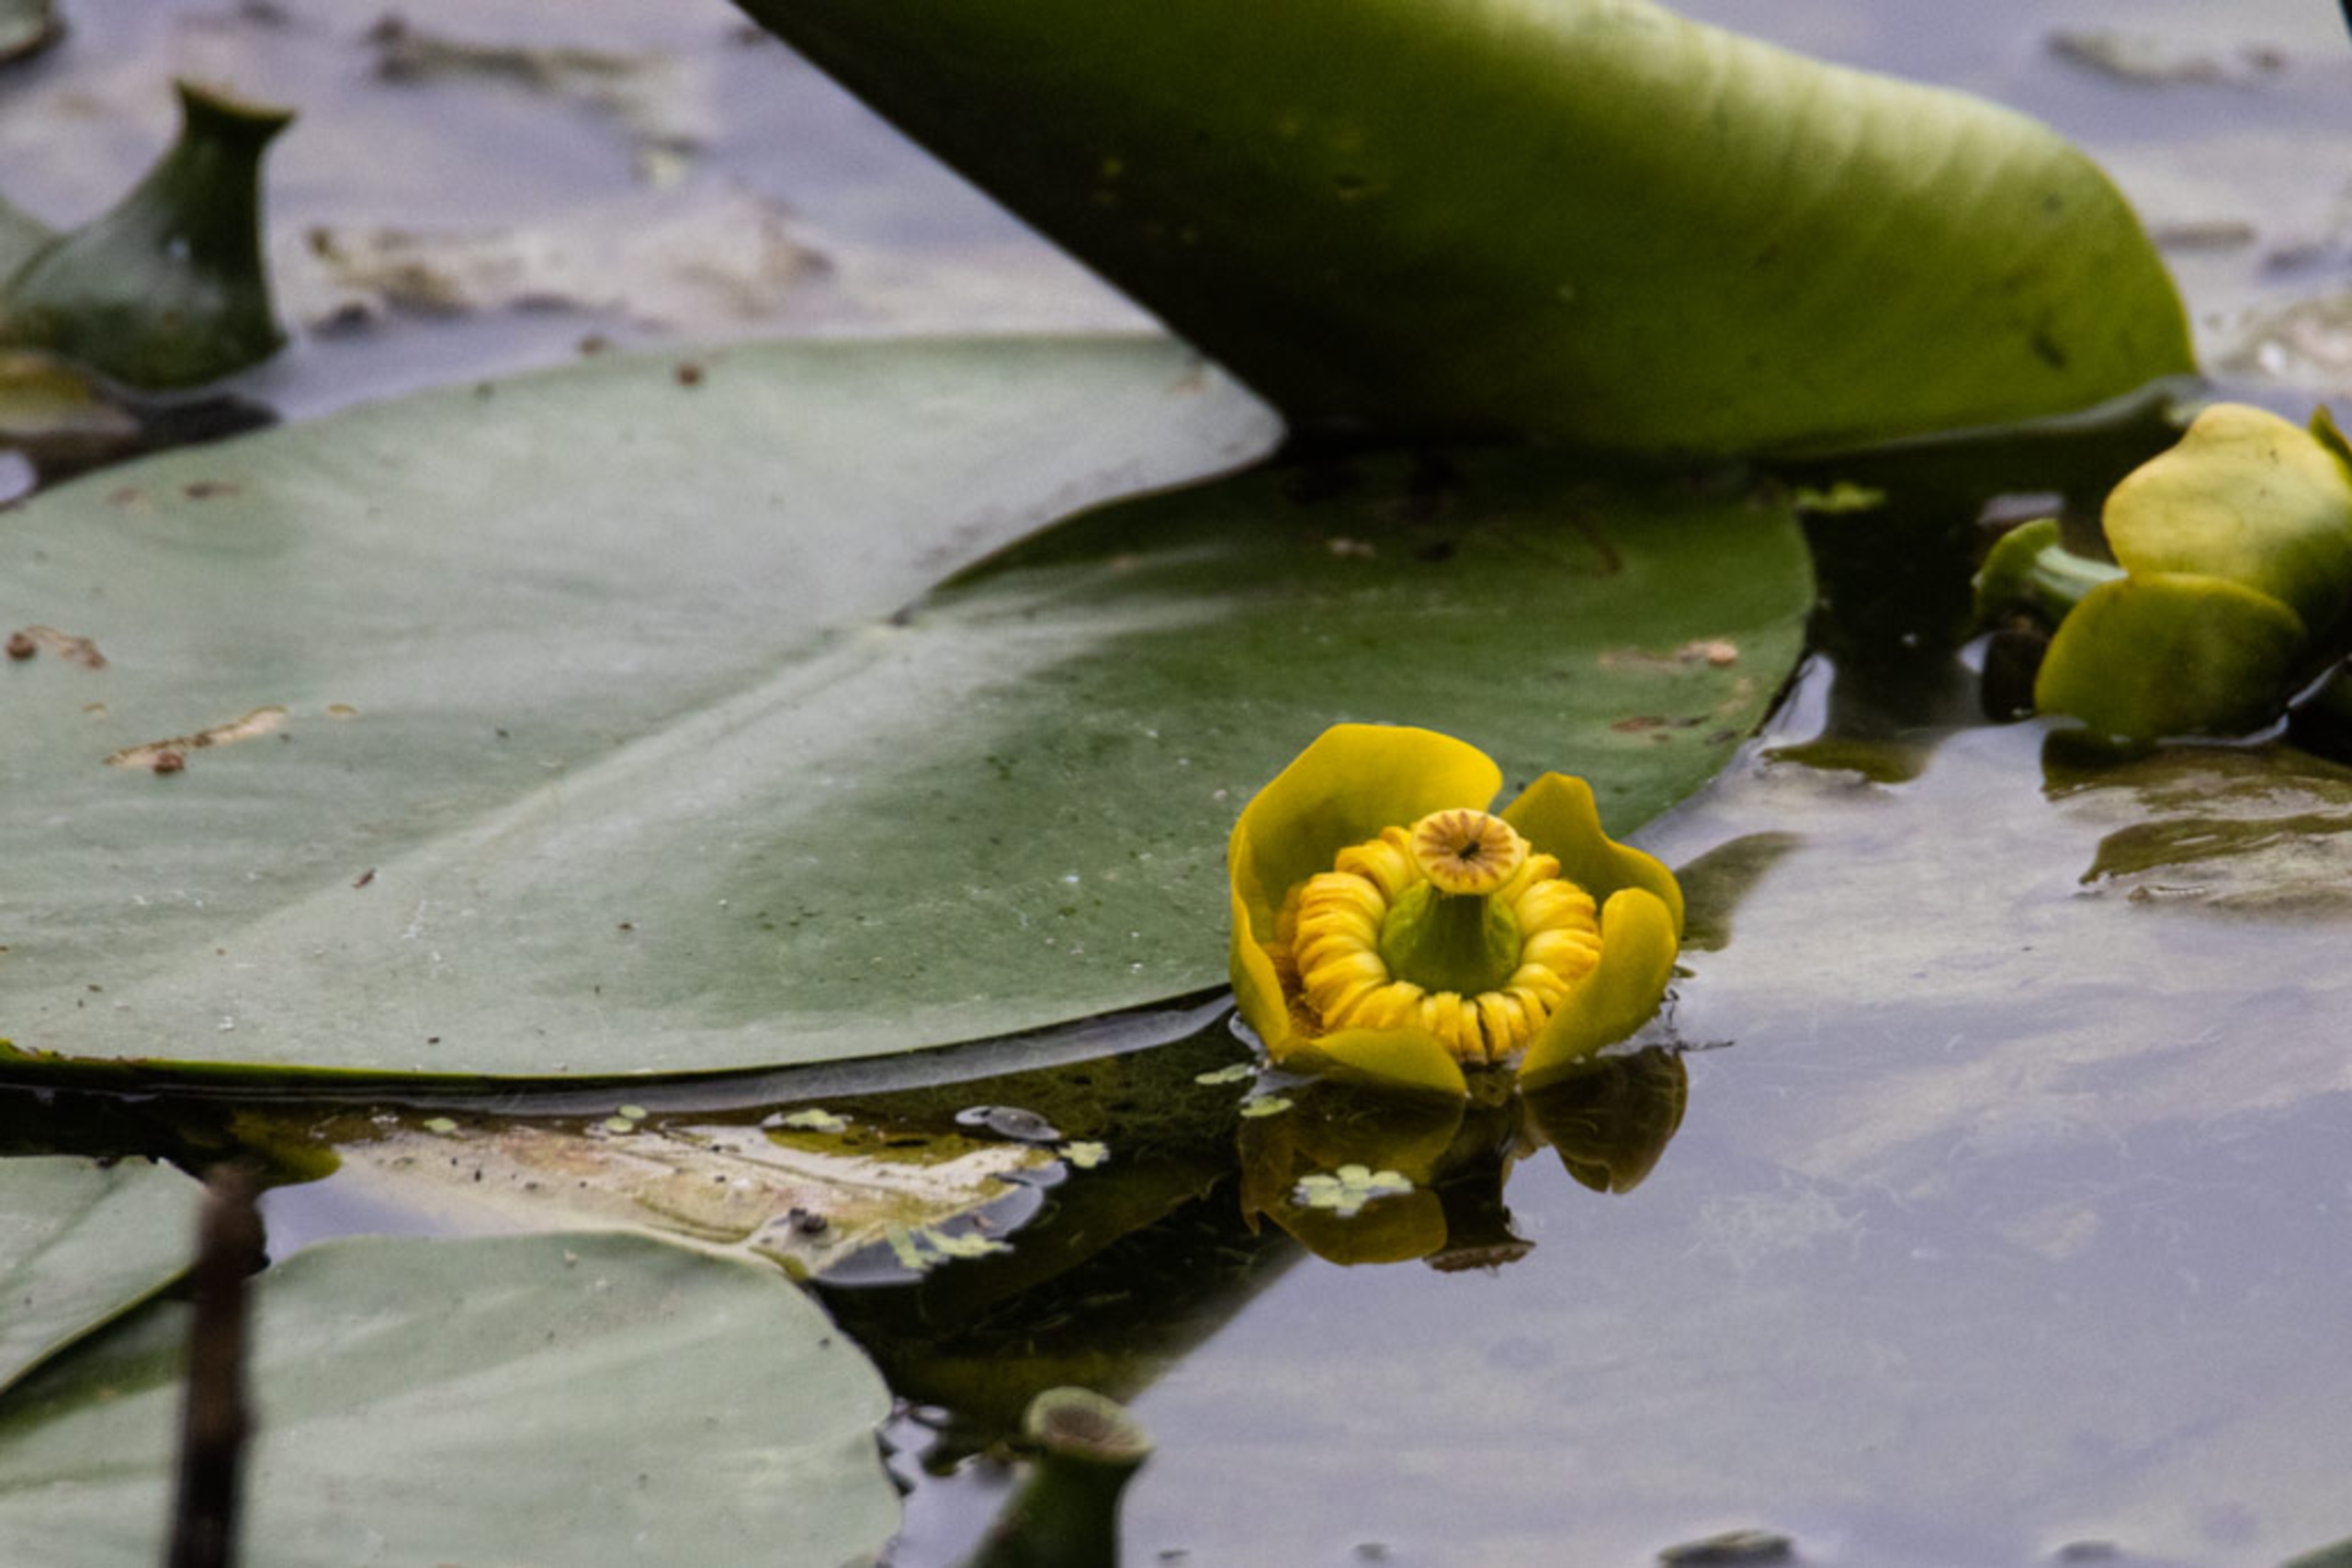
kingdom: Plantae
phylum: Tracheophyta
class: Magnoliopsida
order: Nymphaeales
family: Nymphaeaceae
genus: Nuphar
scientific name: Nuphar lutea
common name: Gul åkande
